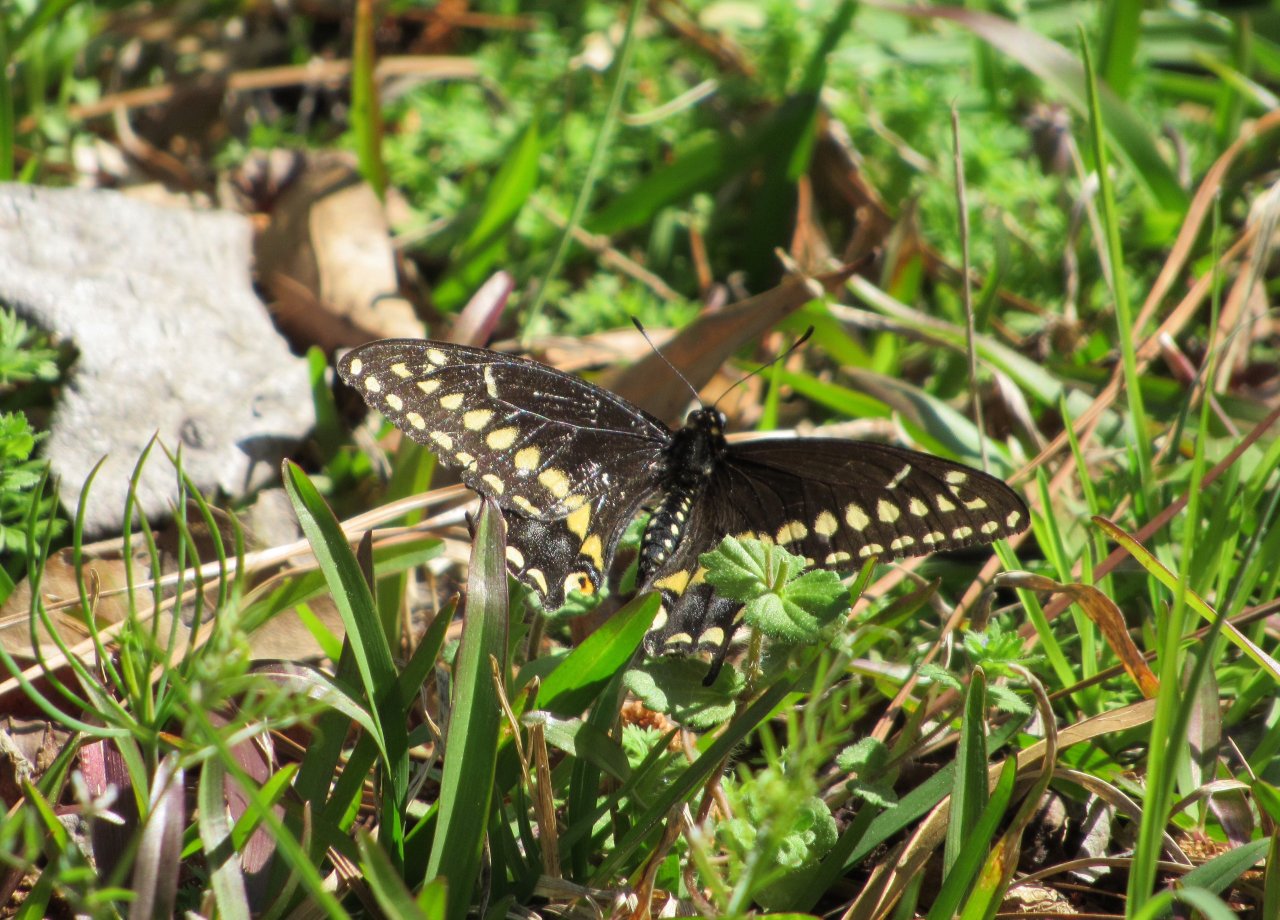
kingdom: Animalia
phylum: Arthropoda
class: Insecta
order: Lepidoptera
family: Papilionidae
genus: Papilio
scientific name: Papilio polyxenes
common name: Black Swallowtail
